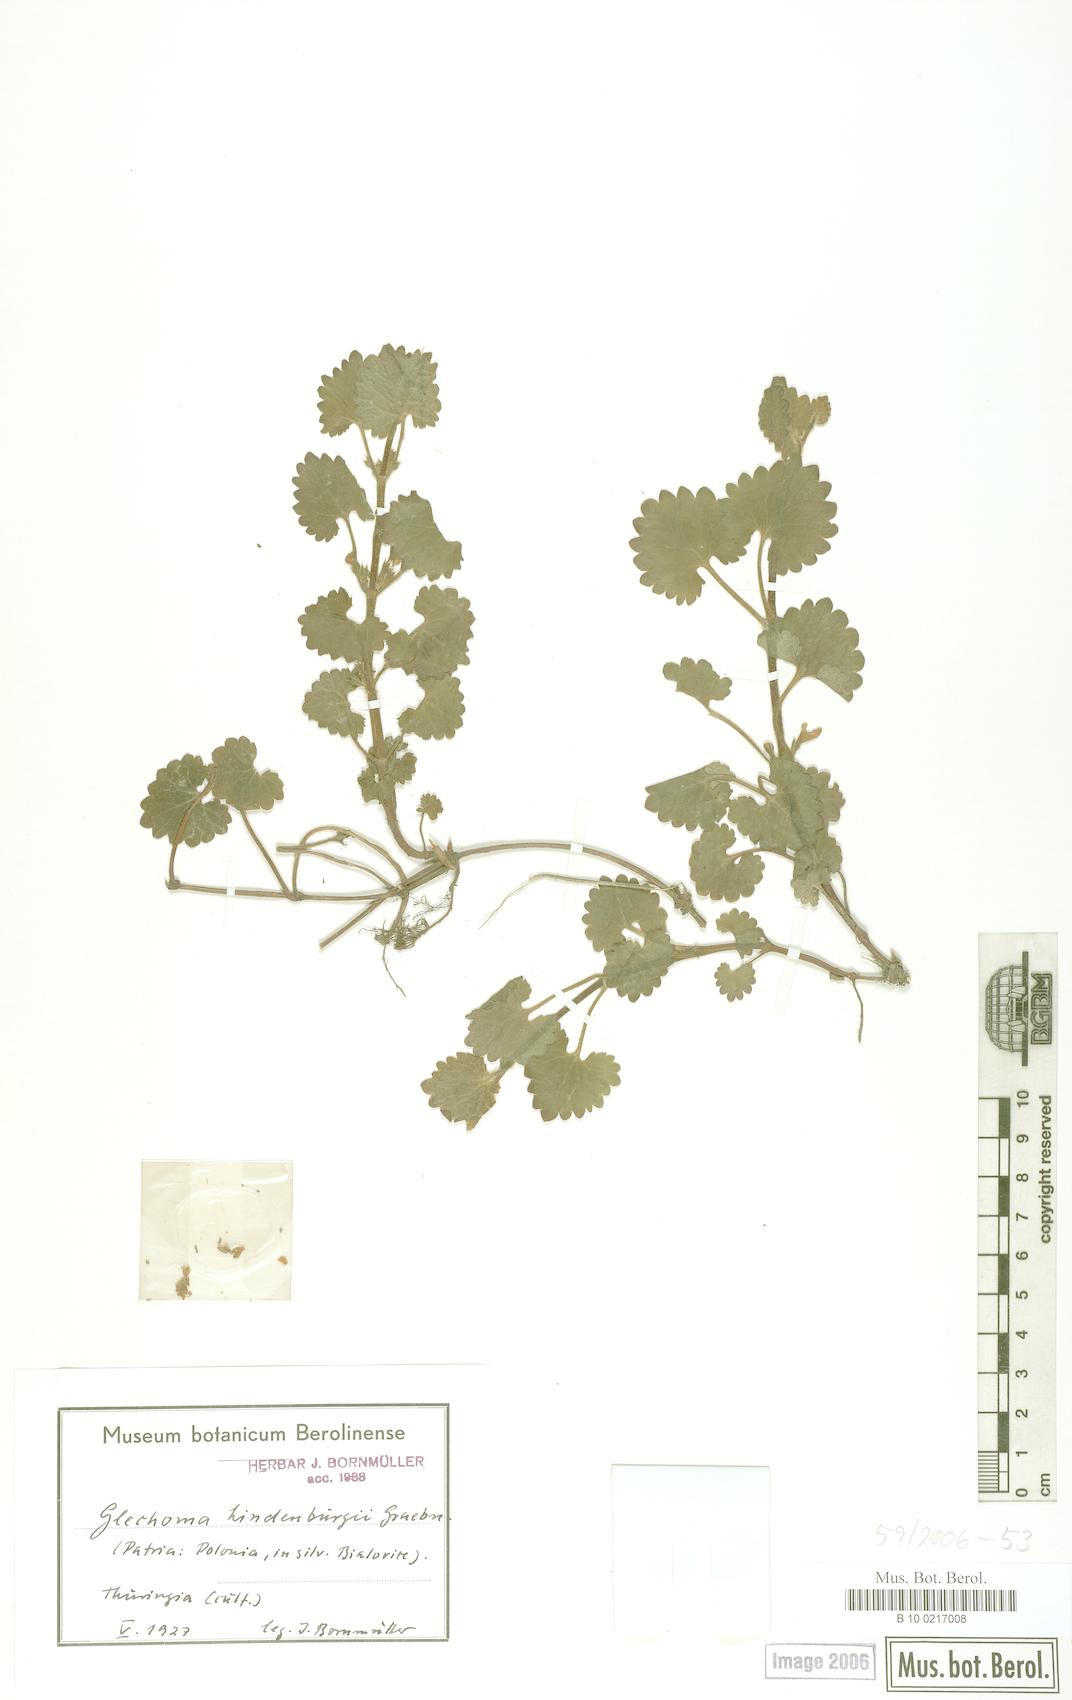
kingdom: Plantae
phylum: Tracheophyta
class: Magnoliopsida
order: Lamiales
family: Lamiaceae
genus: Glechoma
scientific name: Glechoma pannonica
